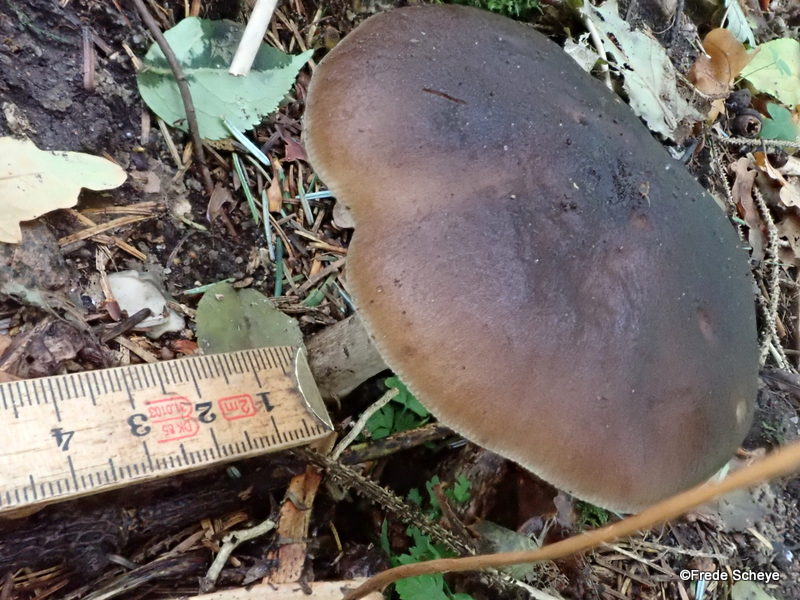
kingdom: Fungi
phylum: Basidiomycota
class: Agaricomycetes
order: Agaricales
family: Pluteaceae
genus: Pluteus
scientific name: Pluteus cervinus
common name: sodfarvet skærmhat
